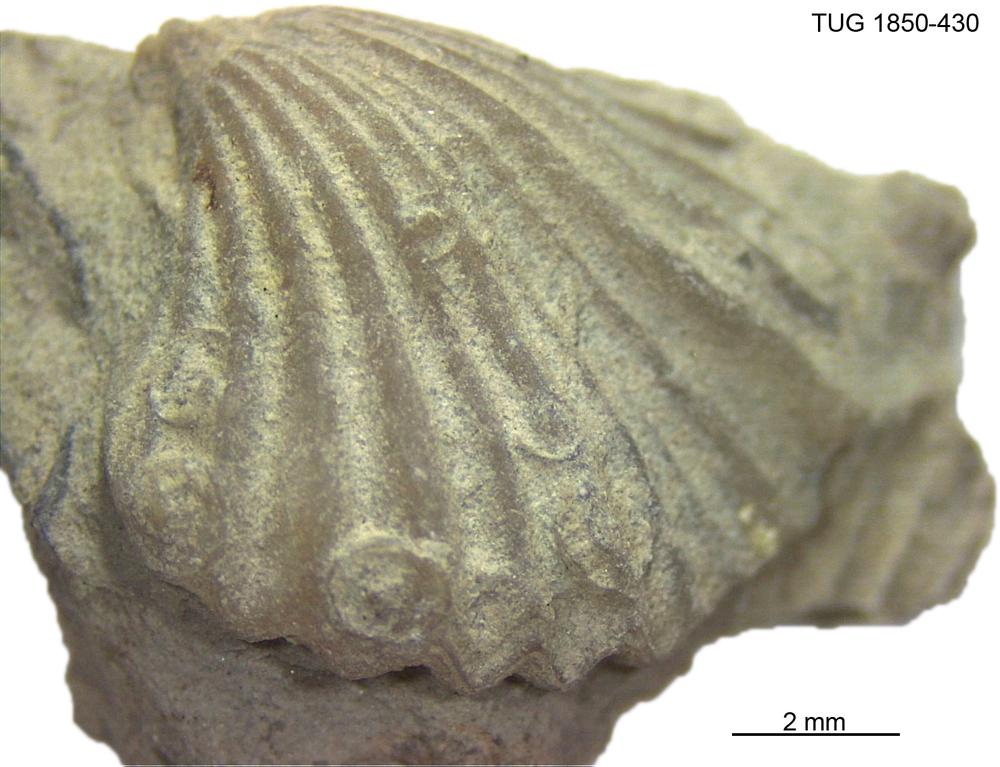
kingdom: Animalia
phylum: Brachiopoda
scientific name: Brachiopoda
